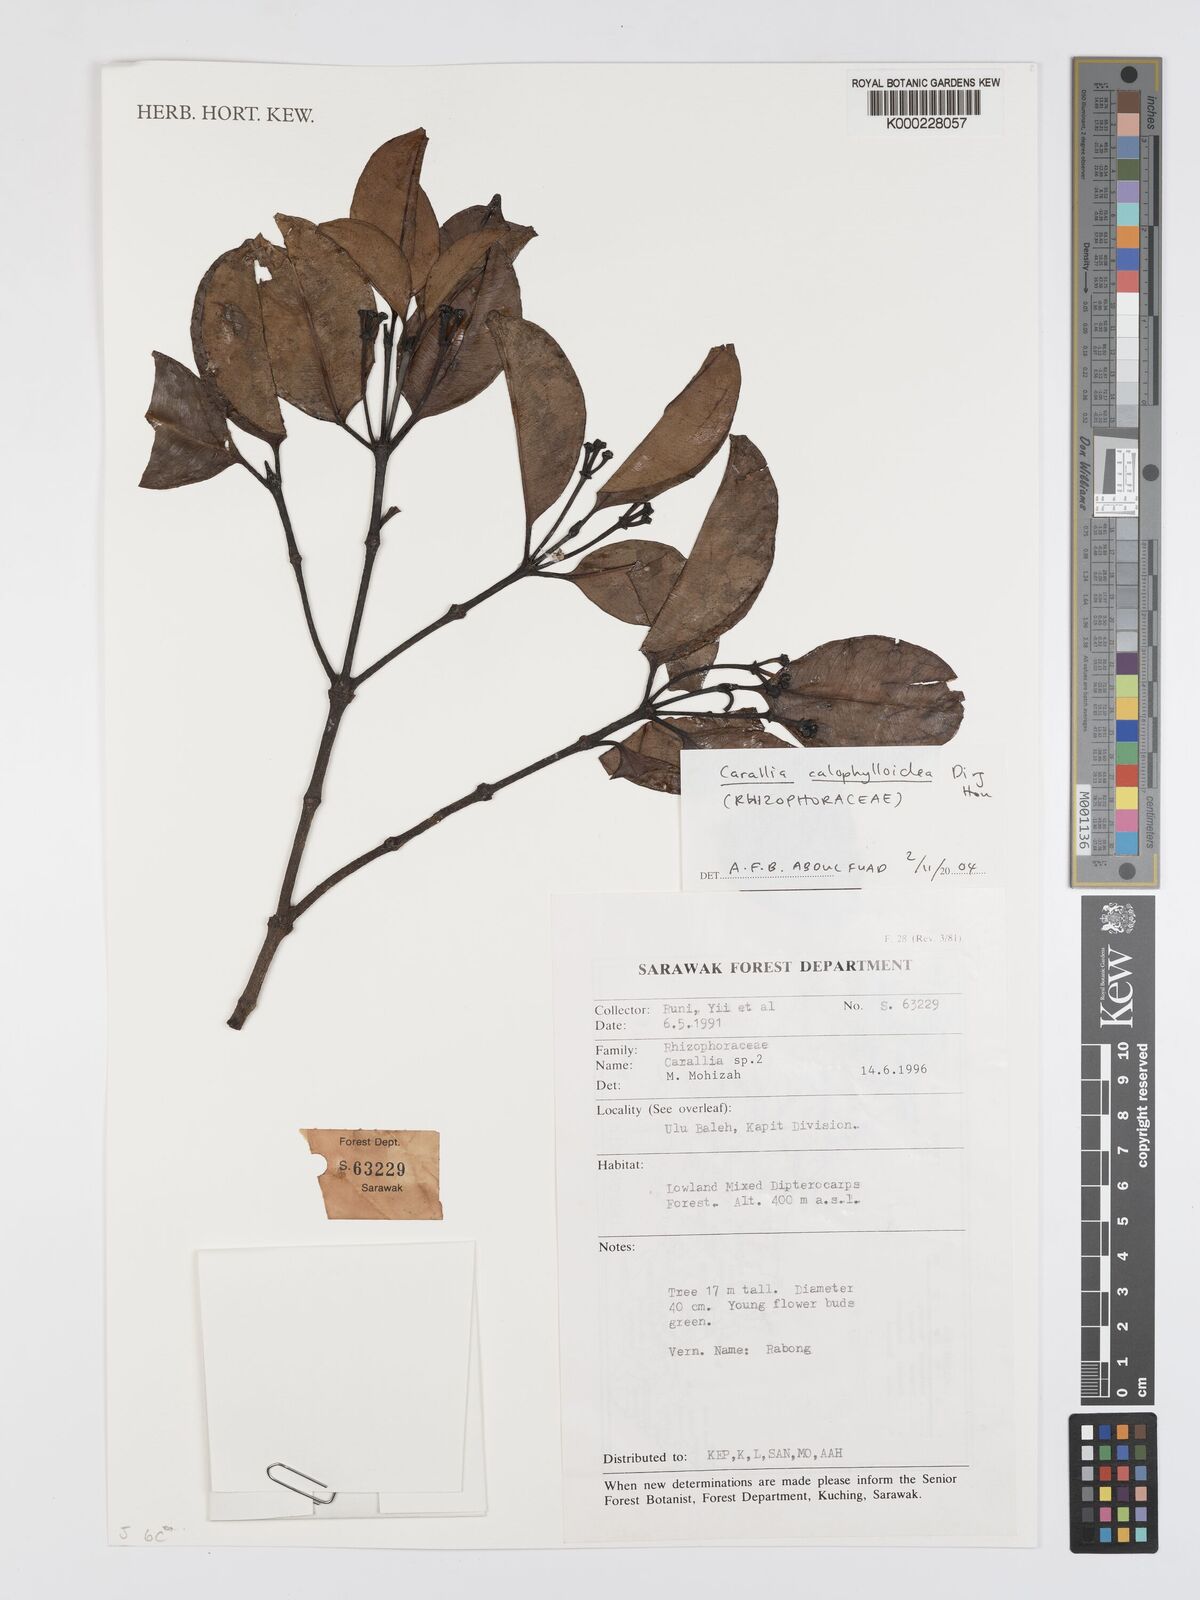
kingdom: Plantae
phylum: Tracheophyta
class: Magnoliopsida
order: Malpighiales
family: Rhizophoraceae
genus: Carallia
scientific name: Carallia calophylloidea
